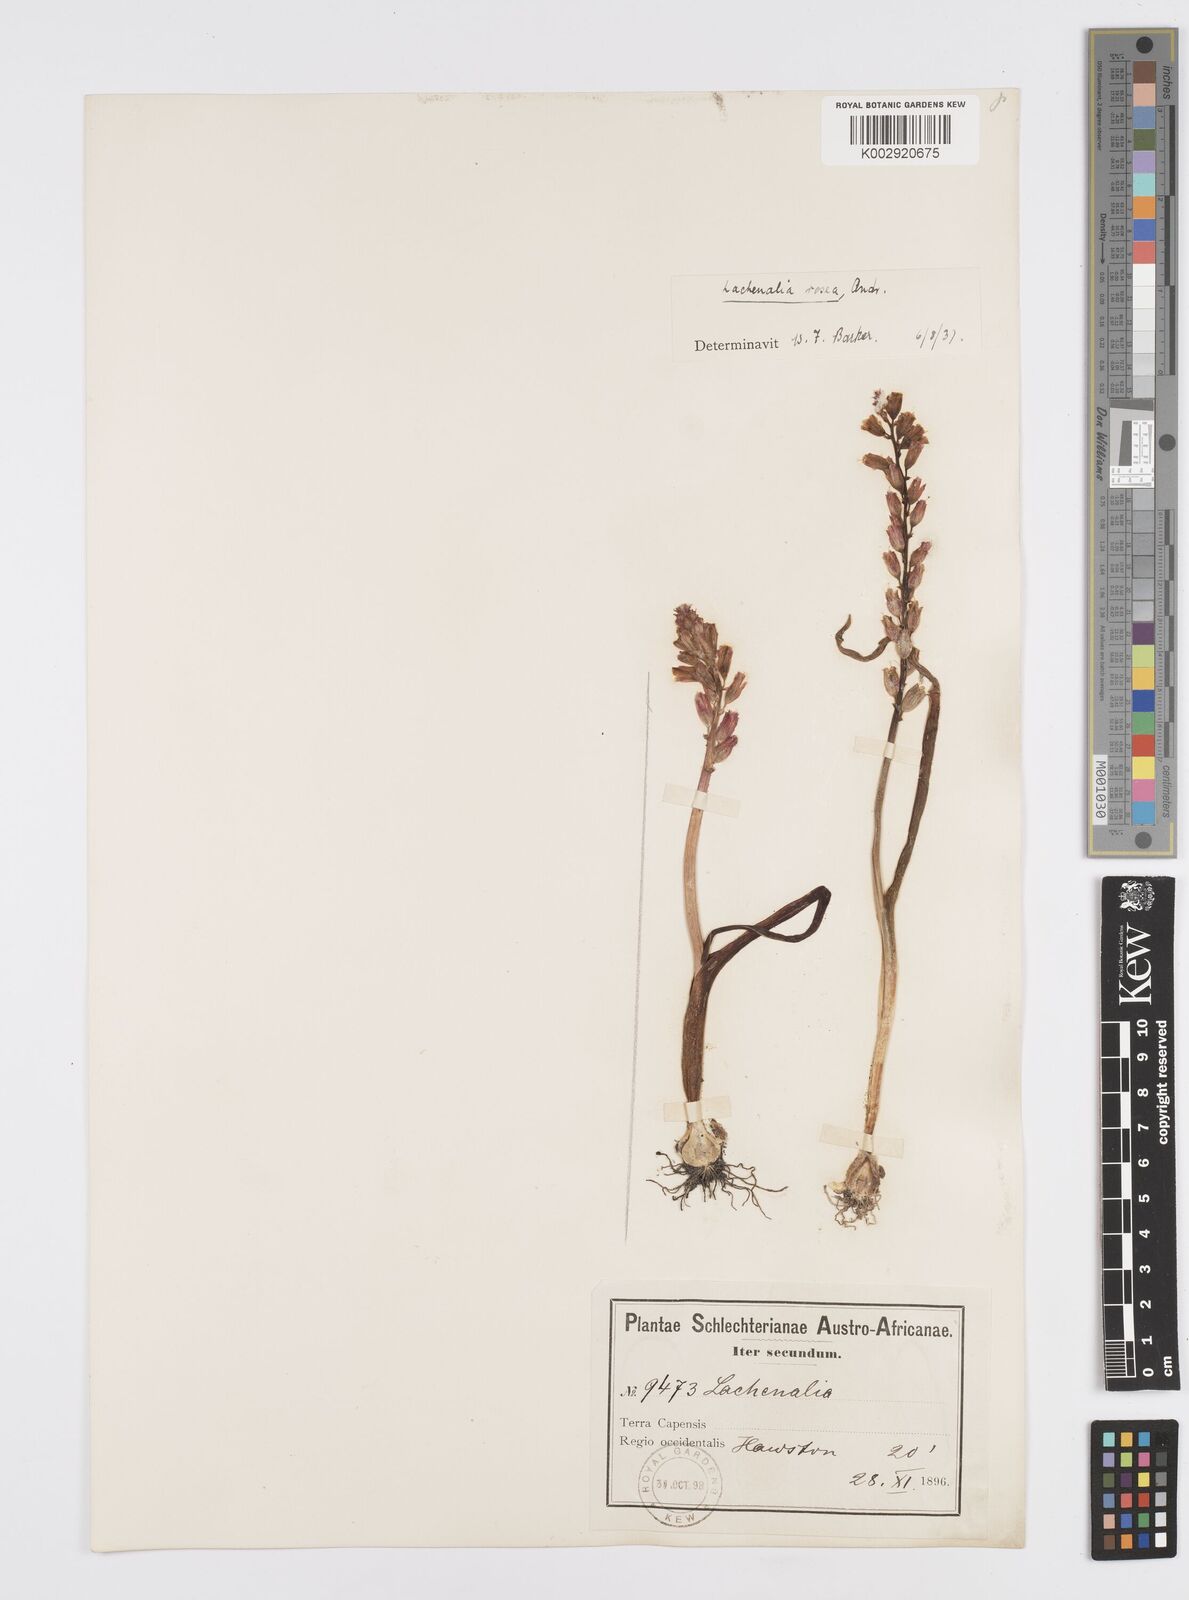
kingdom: Plantae
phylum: Tracheophyta
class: Liliopsida
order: Asparagales
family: Asparagaceae
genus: Lachenalia
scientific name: Lachenalia rosea
